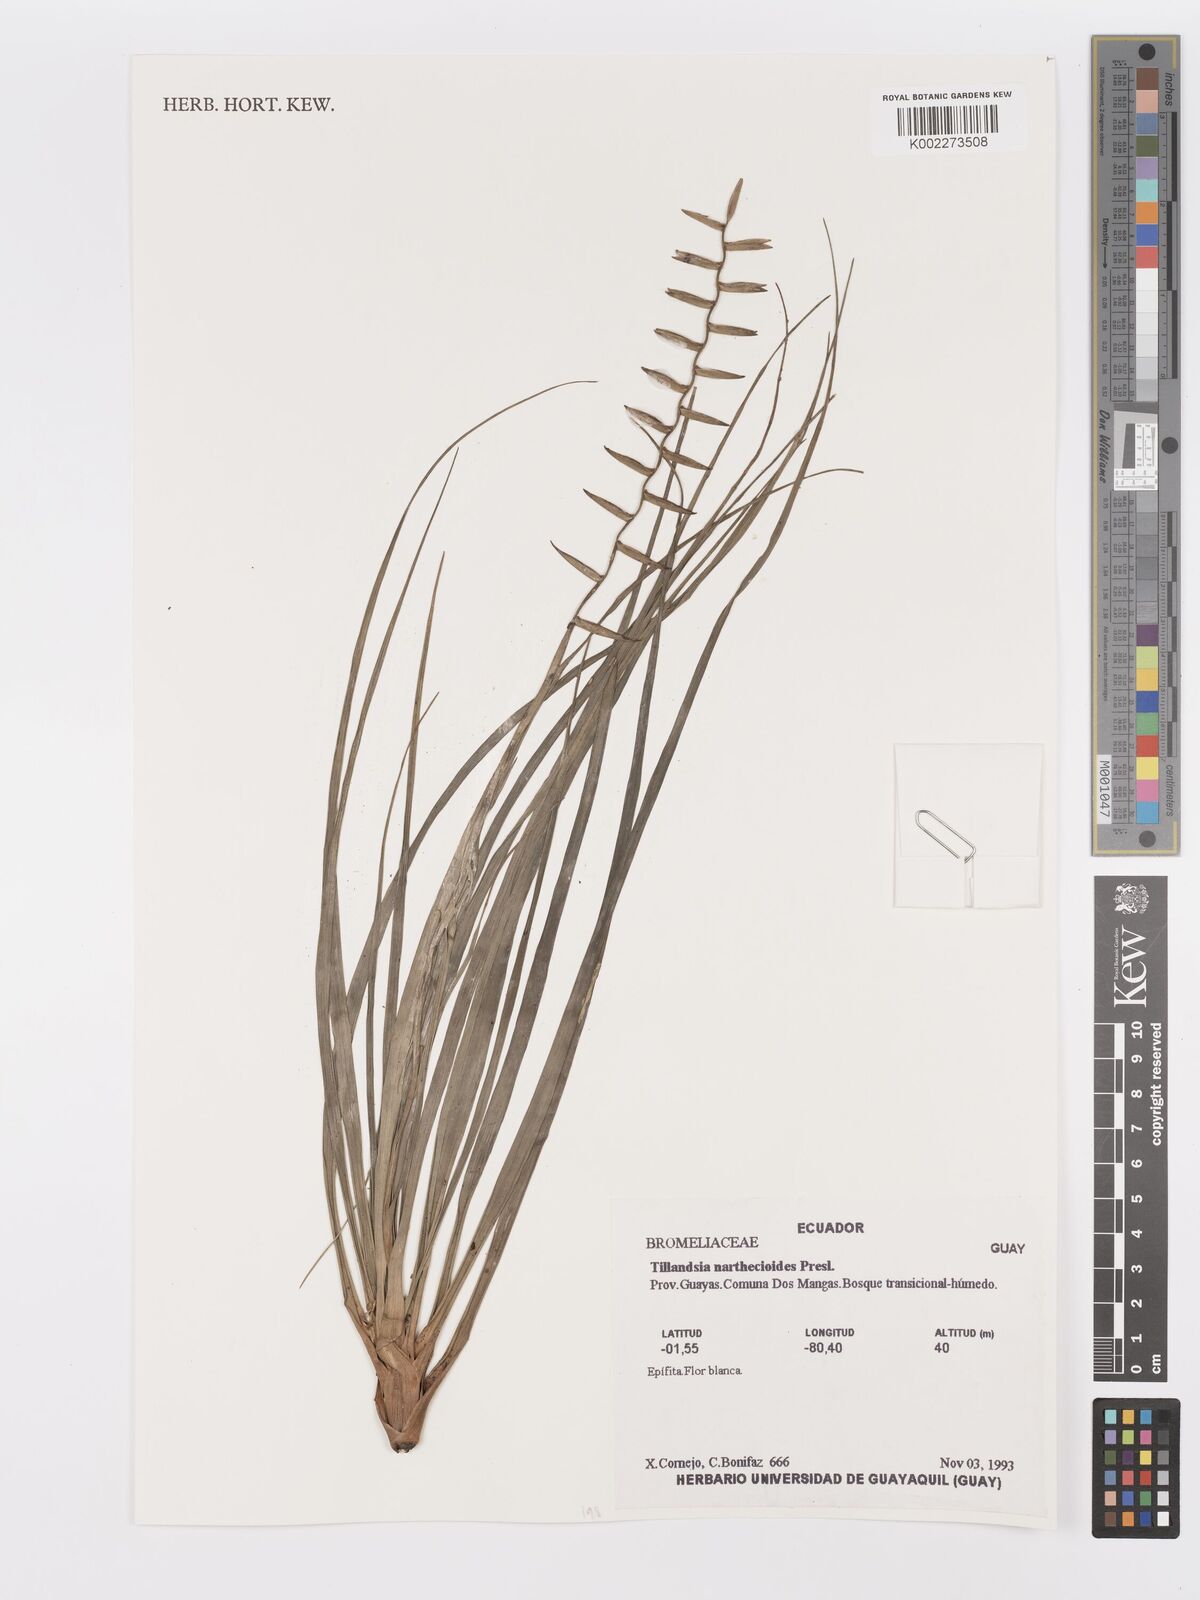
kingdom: Plantae
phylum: Tracheophyta
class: Liliopsida
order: Poales
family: Bromeliaceae
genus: Lemeltonia
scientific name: Lemeltonia narthecioides
